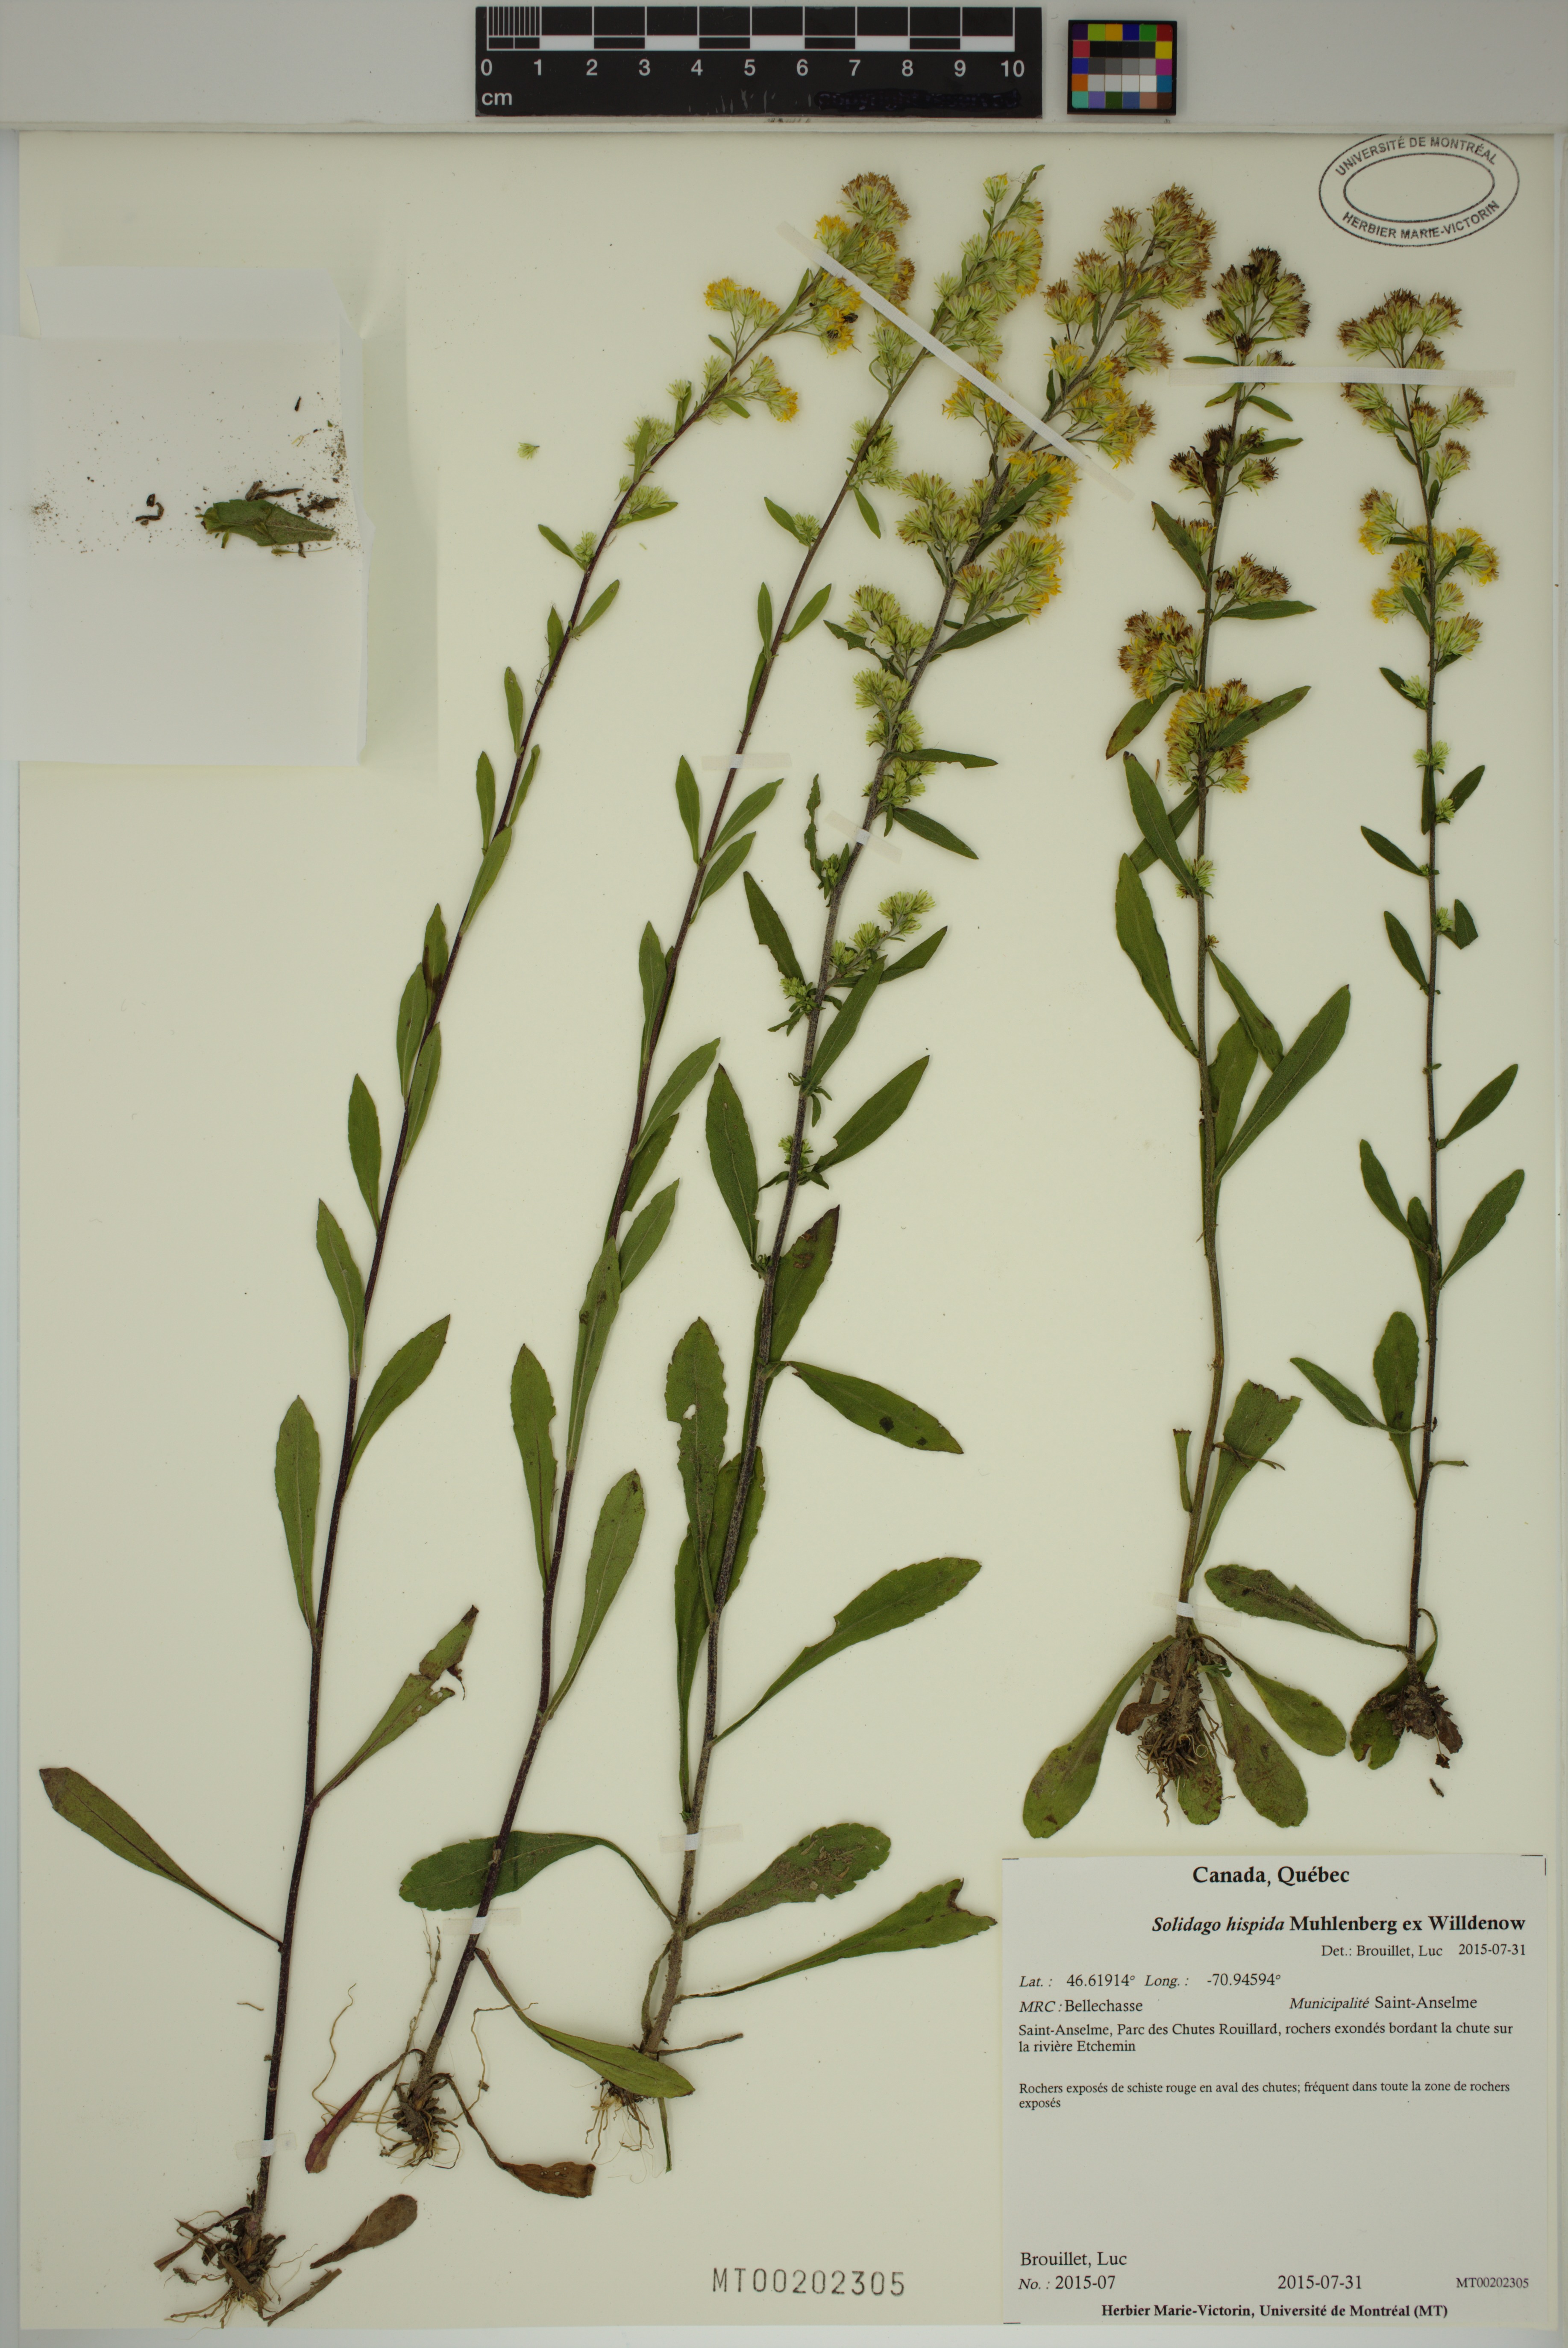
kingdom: Plantae
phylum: Tracheophyta
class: Magnoliopsida
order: Asterales
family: Asteraceae
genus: Solidago
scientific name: Solidago hispida
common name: Hairy goldenrod
